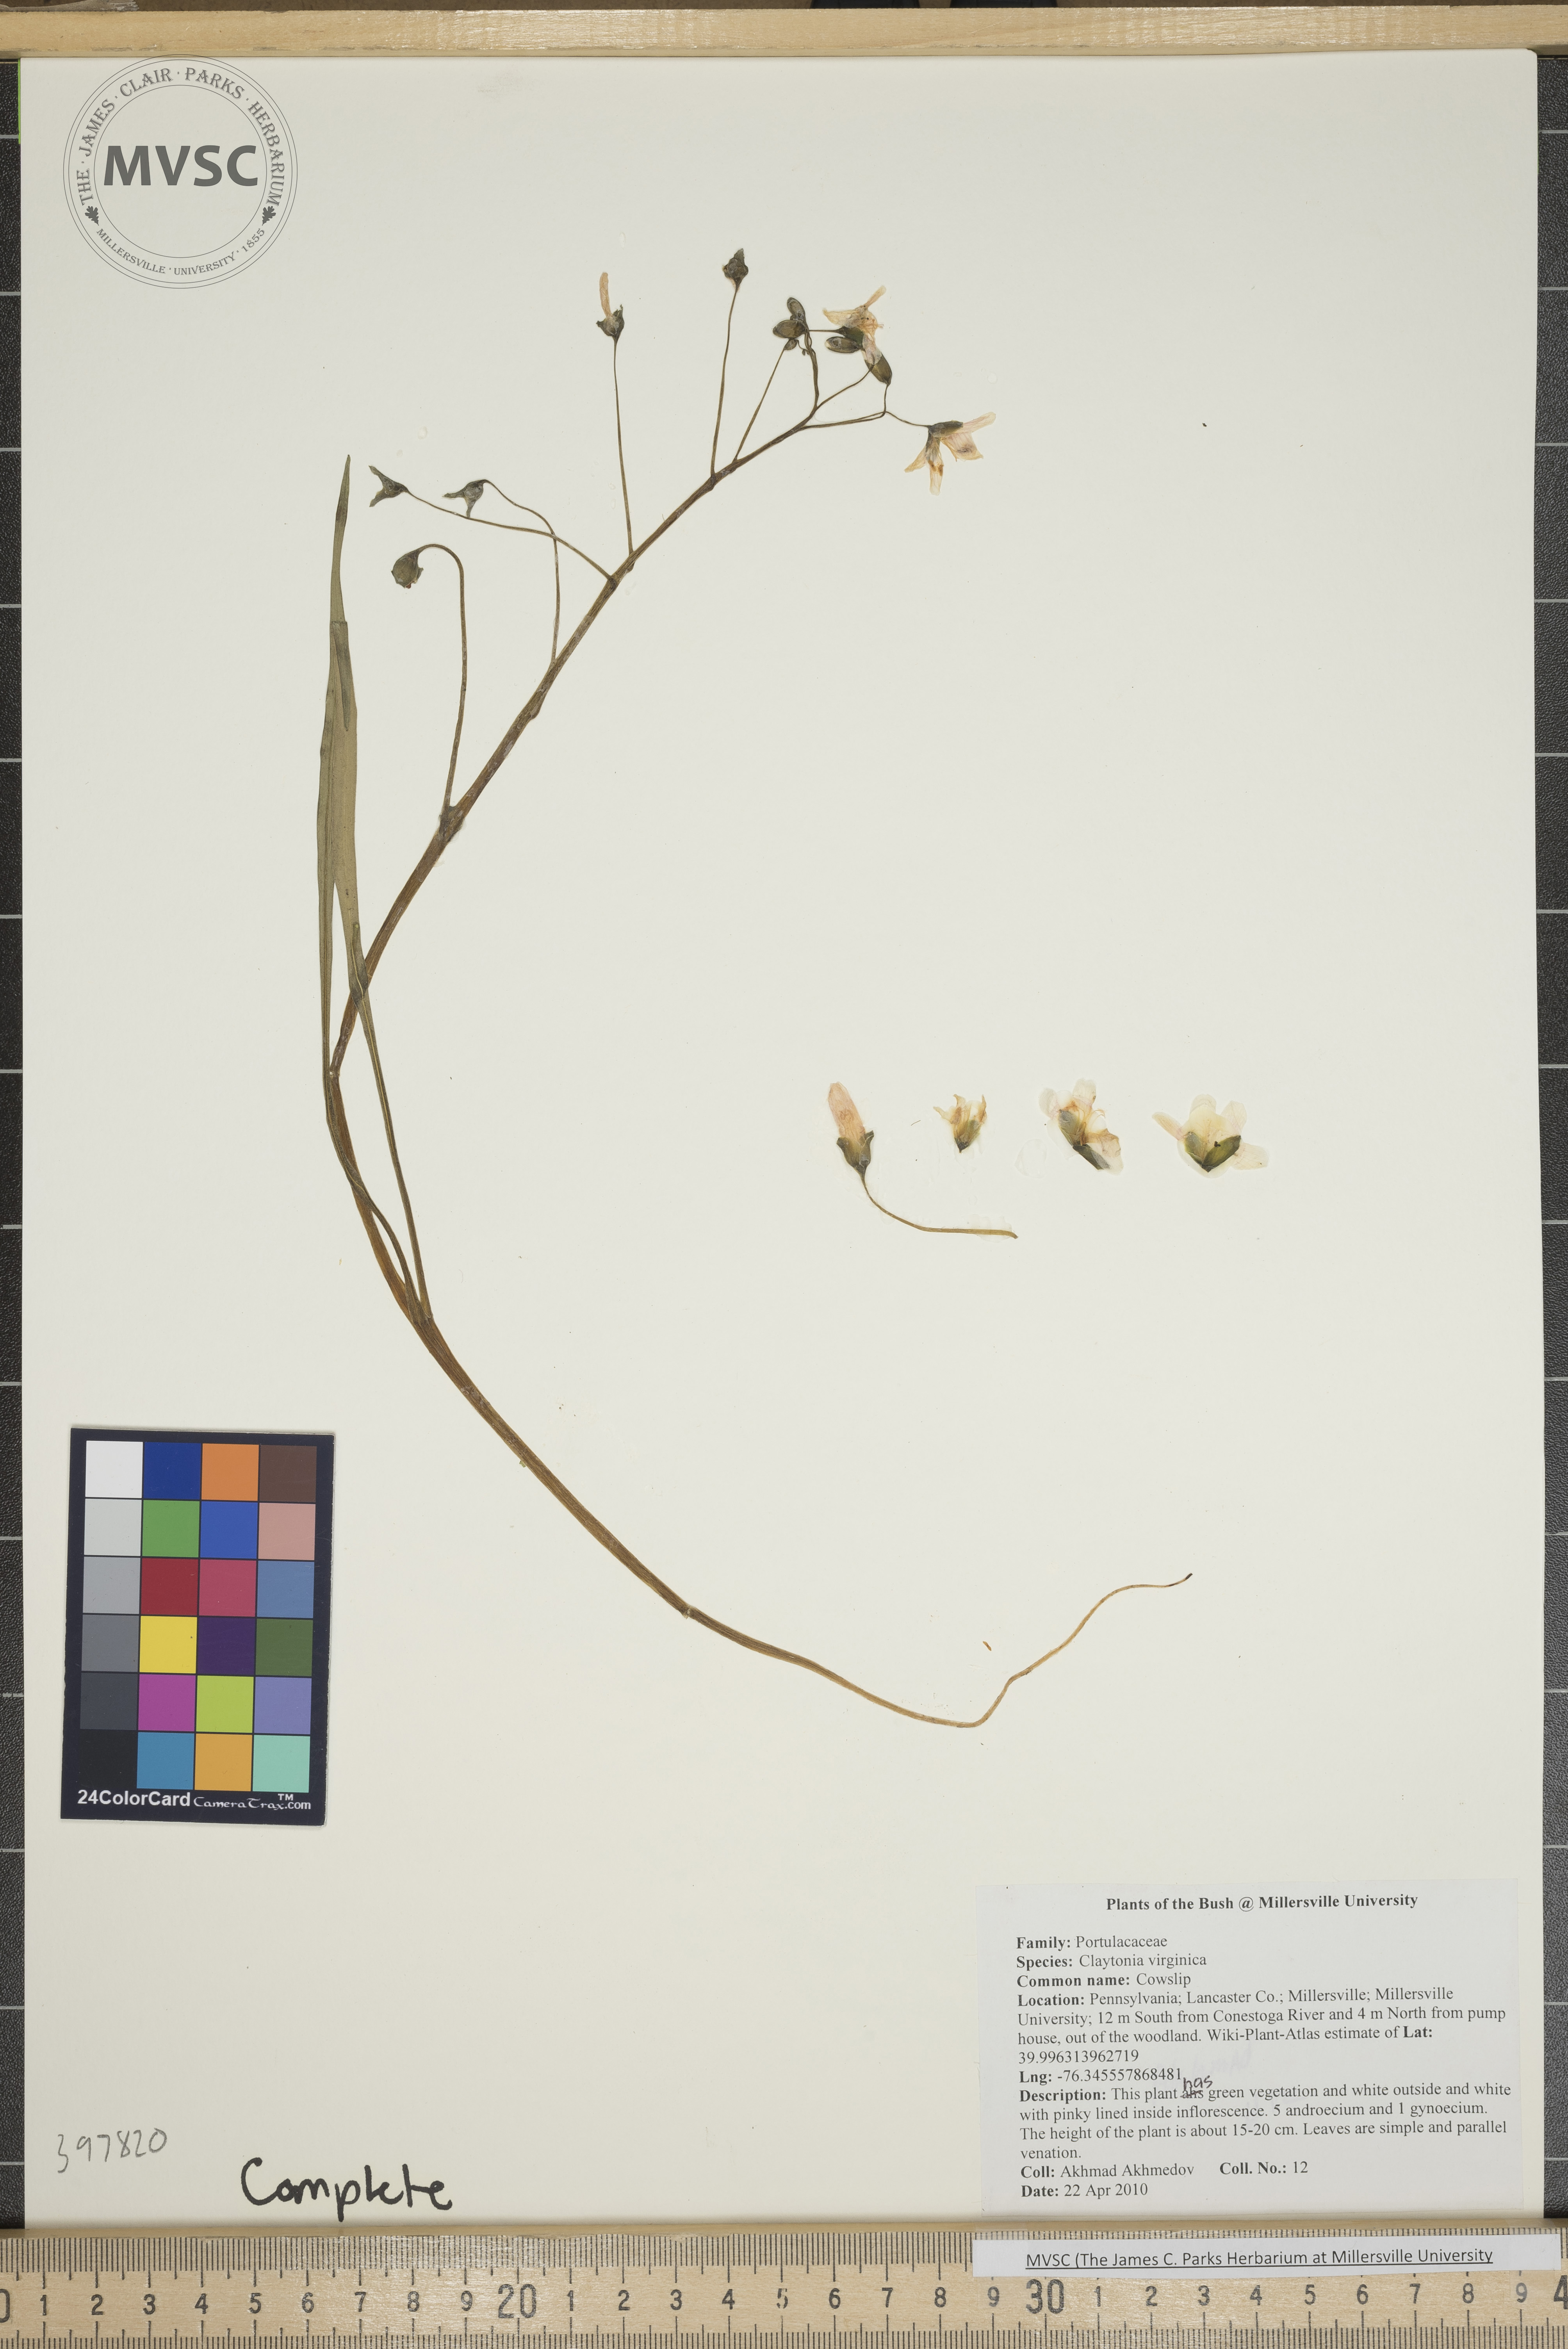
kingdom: Plantae
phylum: Tracheophyta
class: Magnoliopsida
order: Caryophyllales
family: Montiaceae
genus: Claytonia
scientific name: Claytonia virginica
